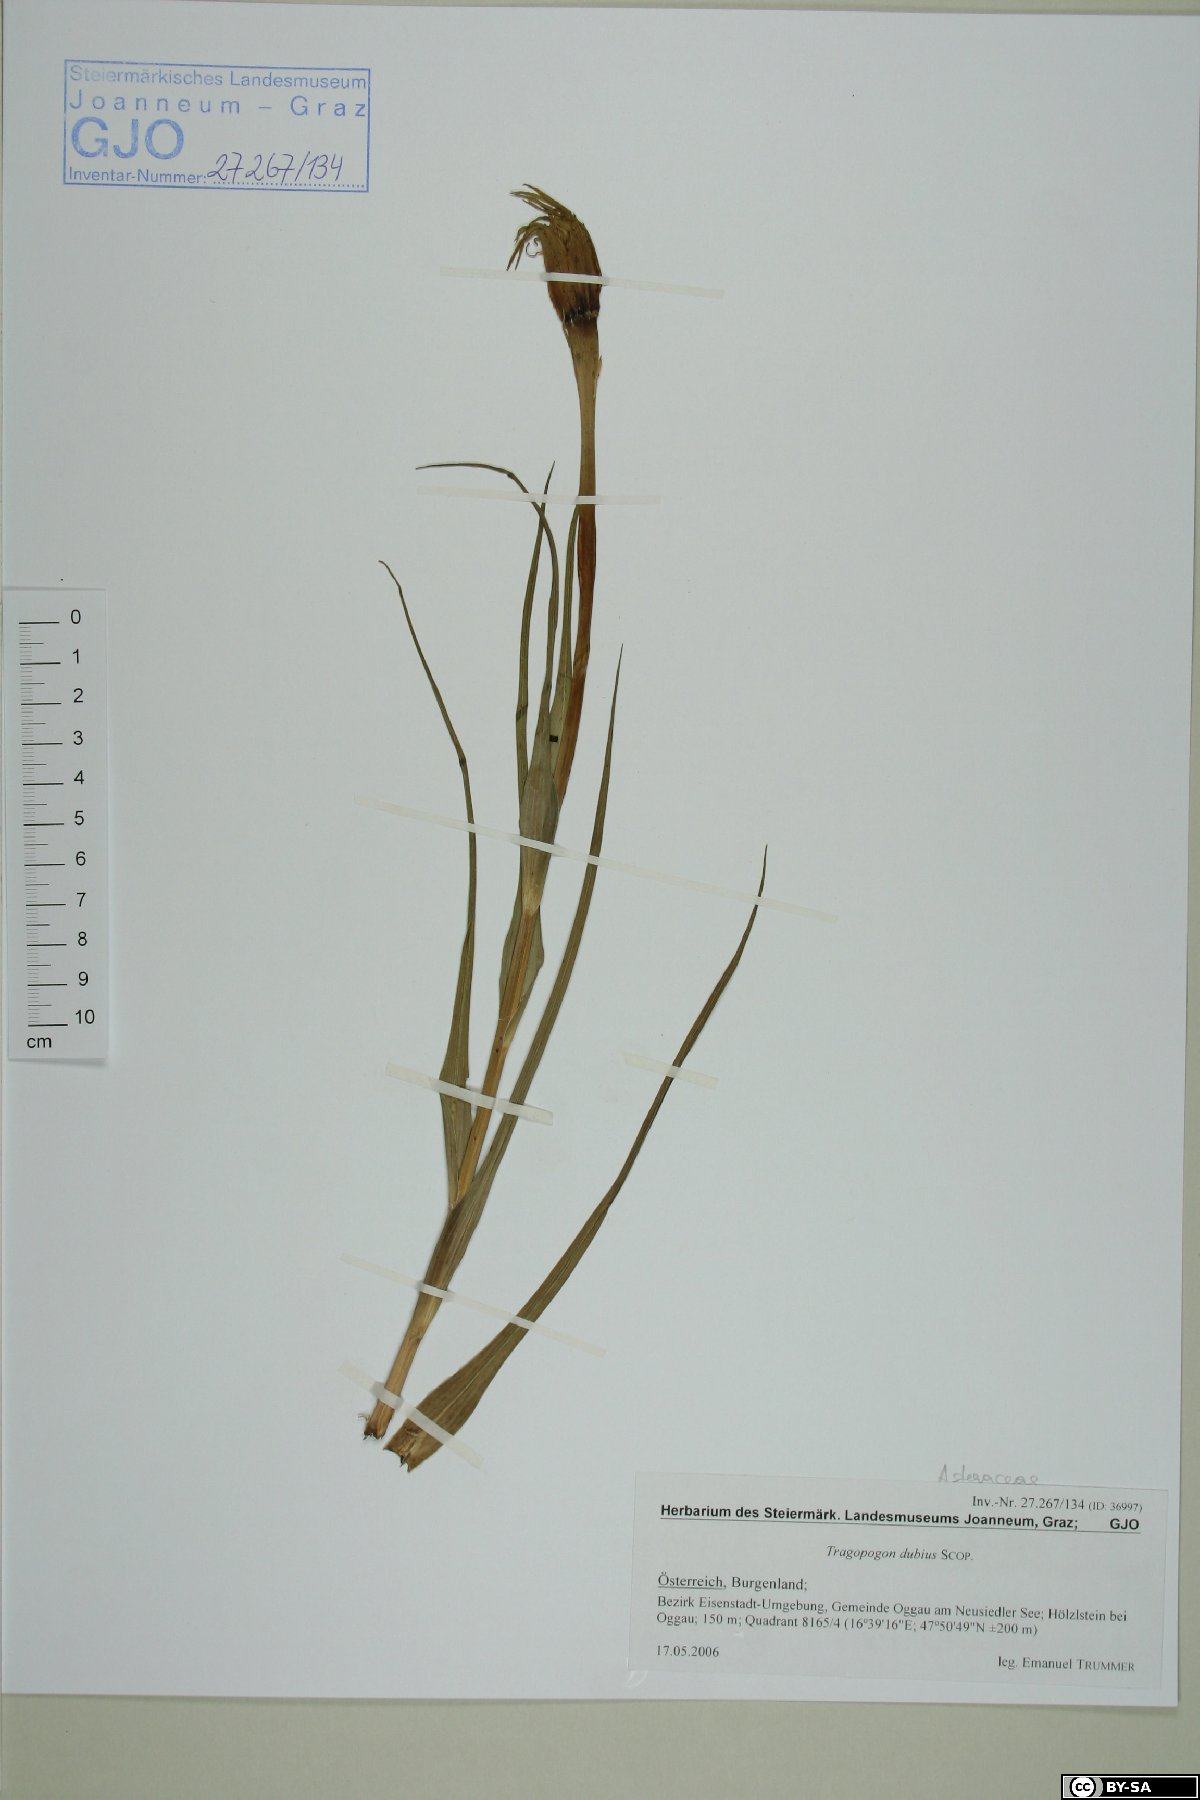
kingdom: Plantae
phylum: Tracheophyta
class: Magnoliopsida
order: Asterales
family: Asteraceae
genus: Tragopogon
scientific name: Tragopogon dubius
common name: Yellow salsify
